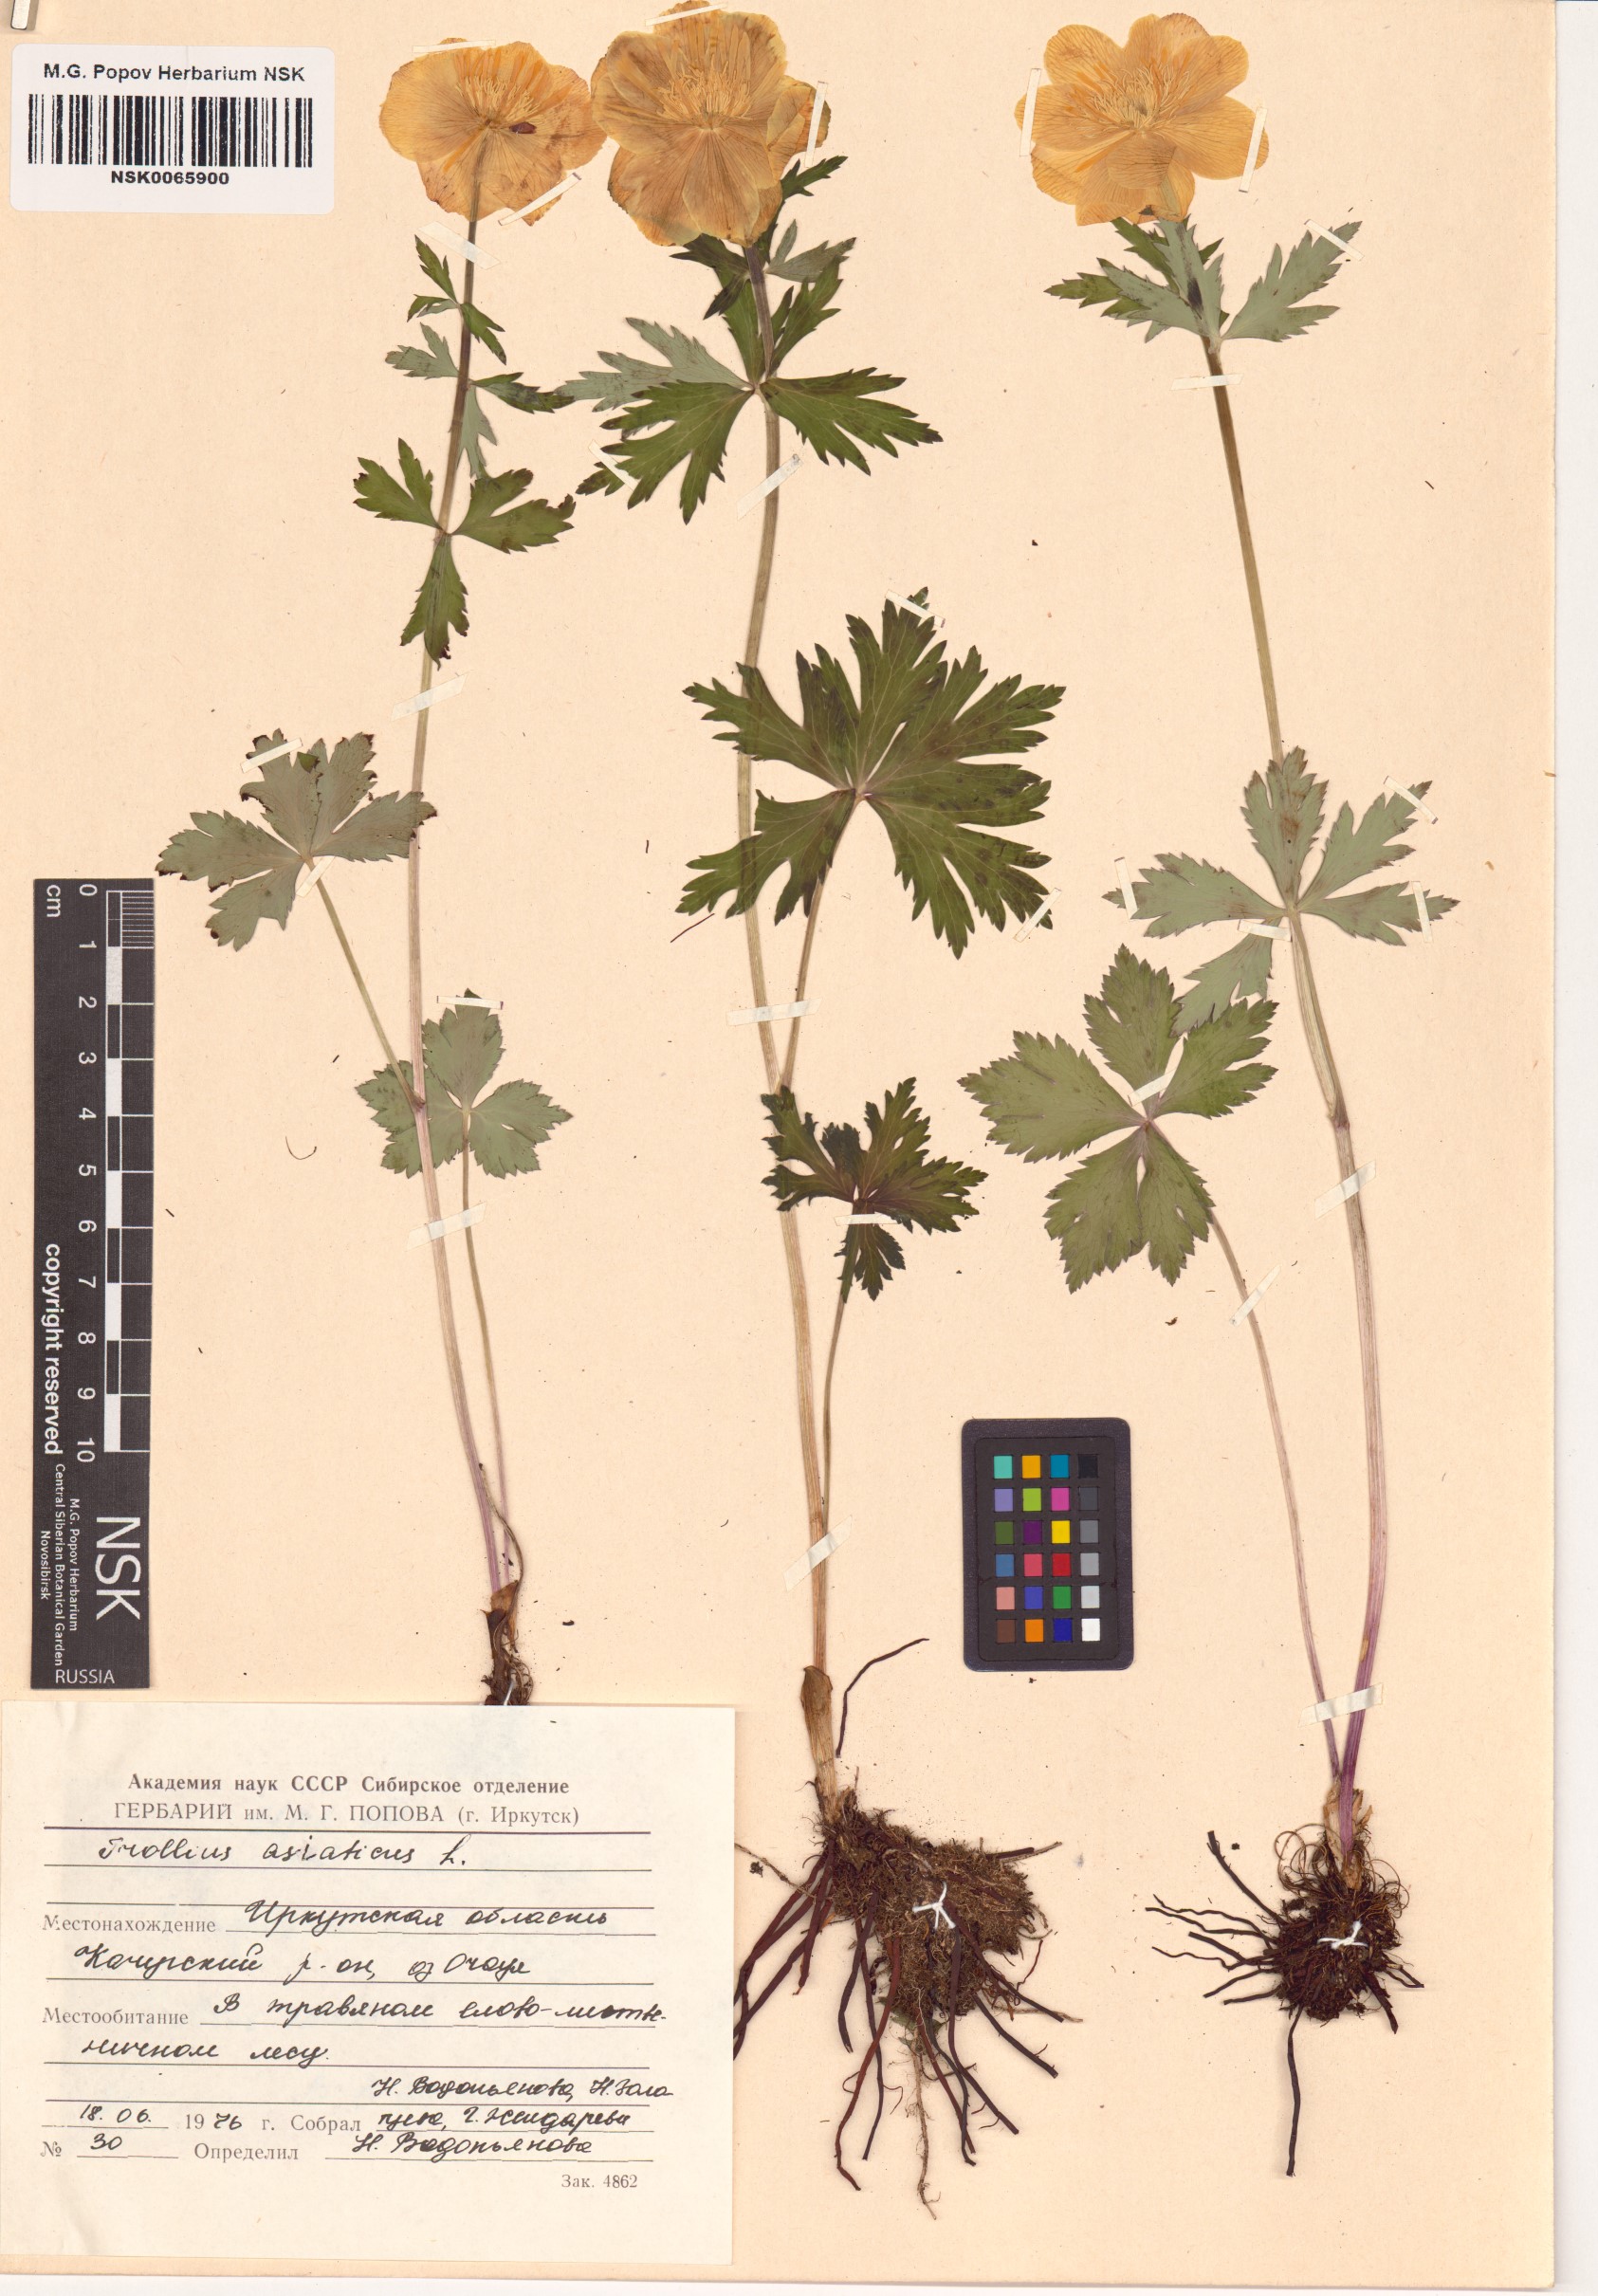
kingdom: Plantae
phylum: Tracheophyta
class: Magnoliopsida
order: Ranunculales
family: Ranunculaceae
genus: Trollius
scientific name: Trollius asiaticus
